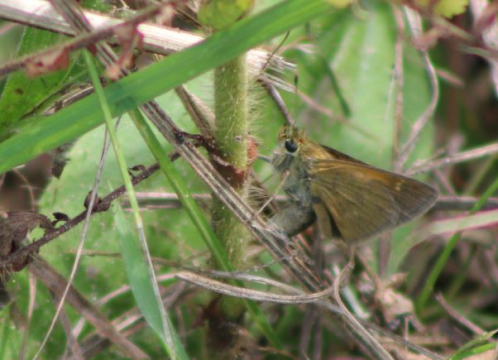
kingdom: Animalia
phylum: Arthropoda
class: Insecta
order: Lepidoptera
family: Hesperiidae
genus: Polites
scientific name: Polites themistocles
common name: Tawny-edged Skipper
